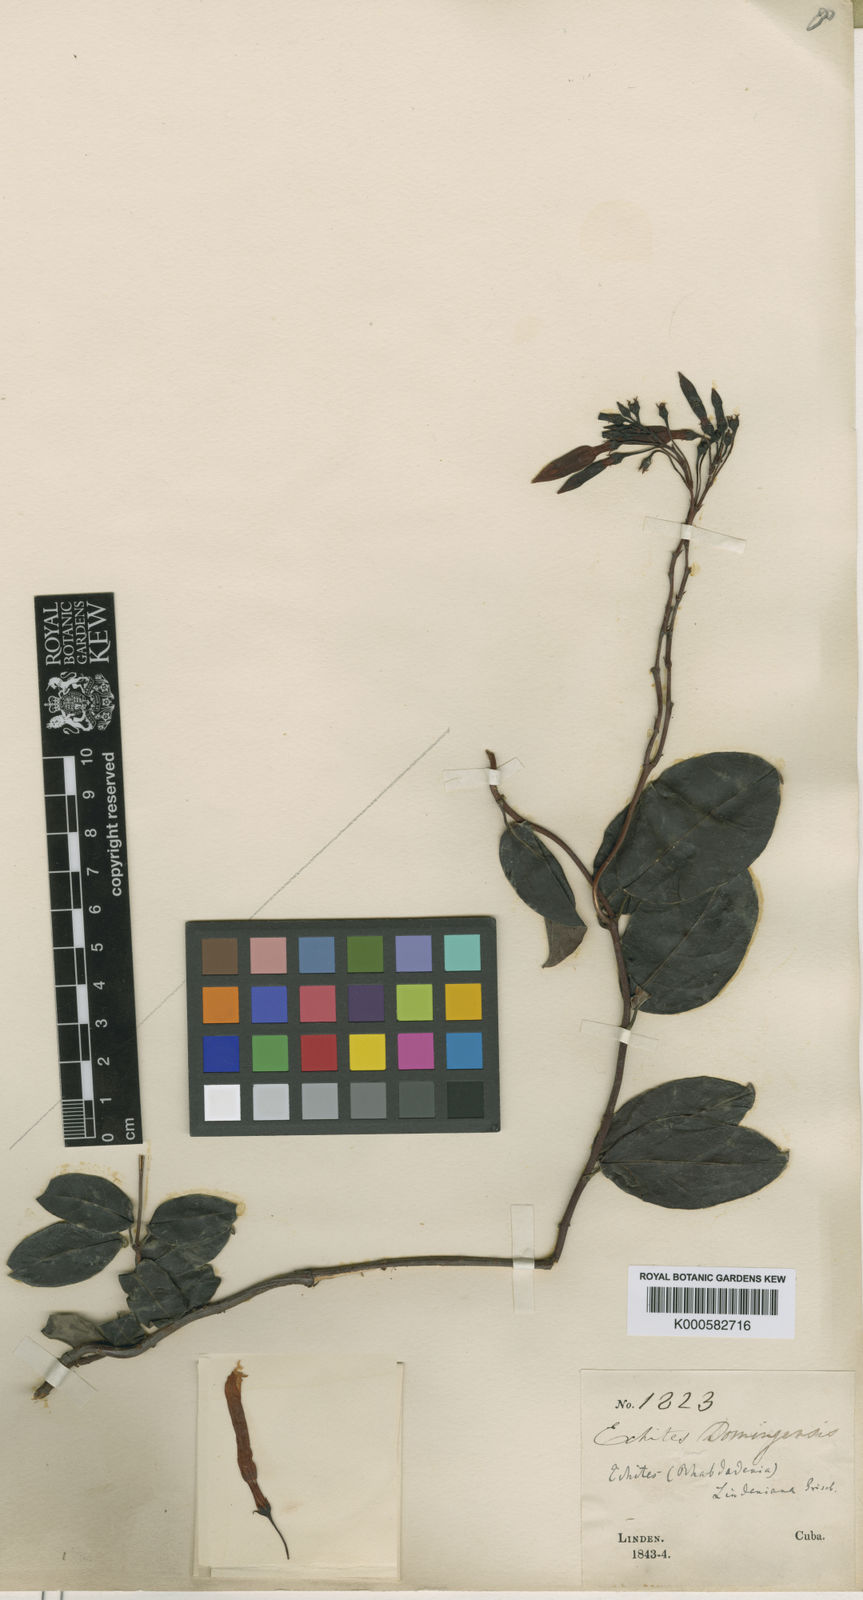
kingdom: Plantae
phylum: Tracheophyta
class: Magnoliopsida
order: Gentianales
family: Apocynaceae
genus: Angadenia
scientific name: Angadenia lindeniana
